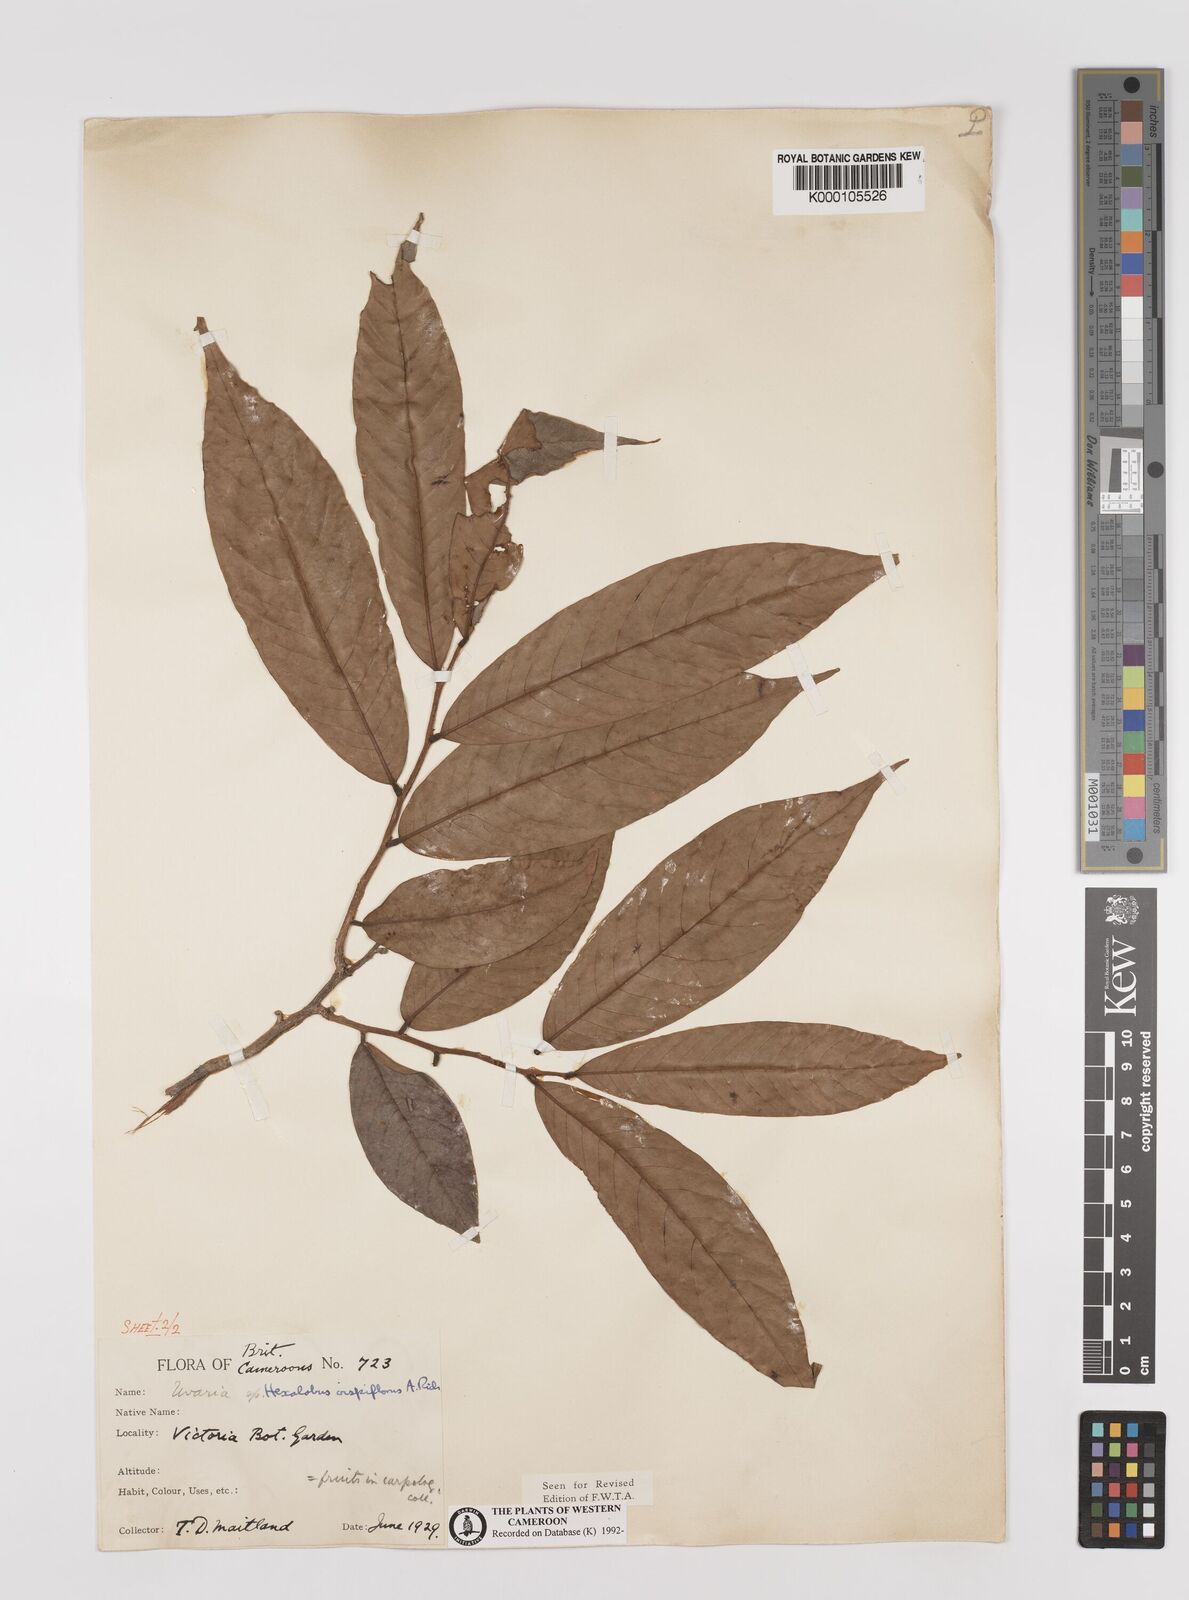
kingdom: Plantae
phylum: Tracheophyta
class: Magnoliopsida
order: Magnoliales
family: Annonaceae
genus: Hexalobus
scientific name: Hexalobus crispiflorus
